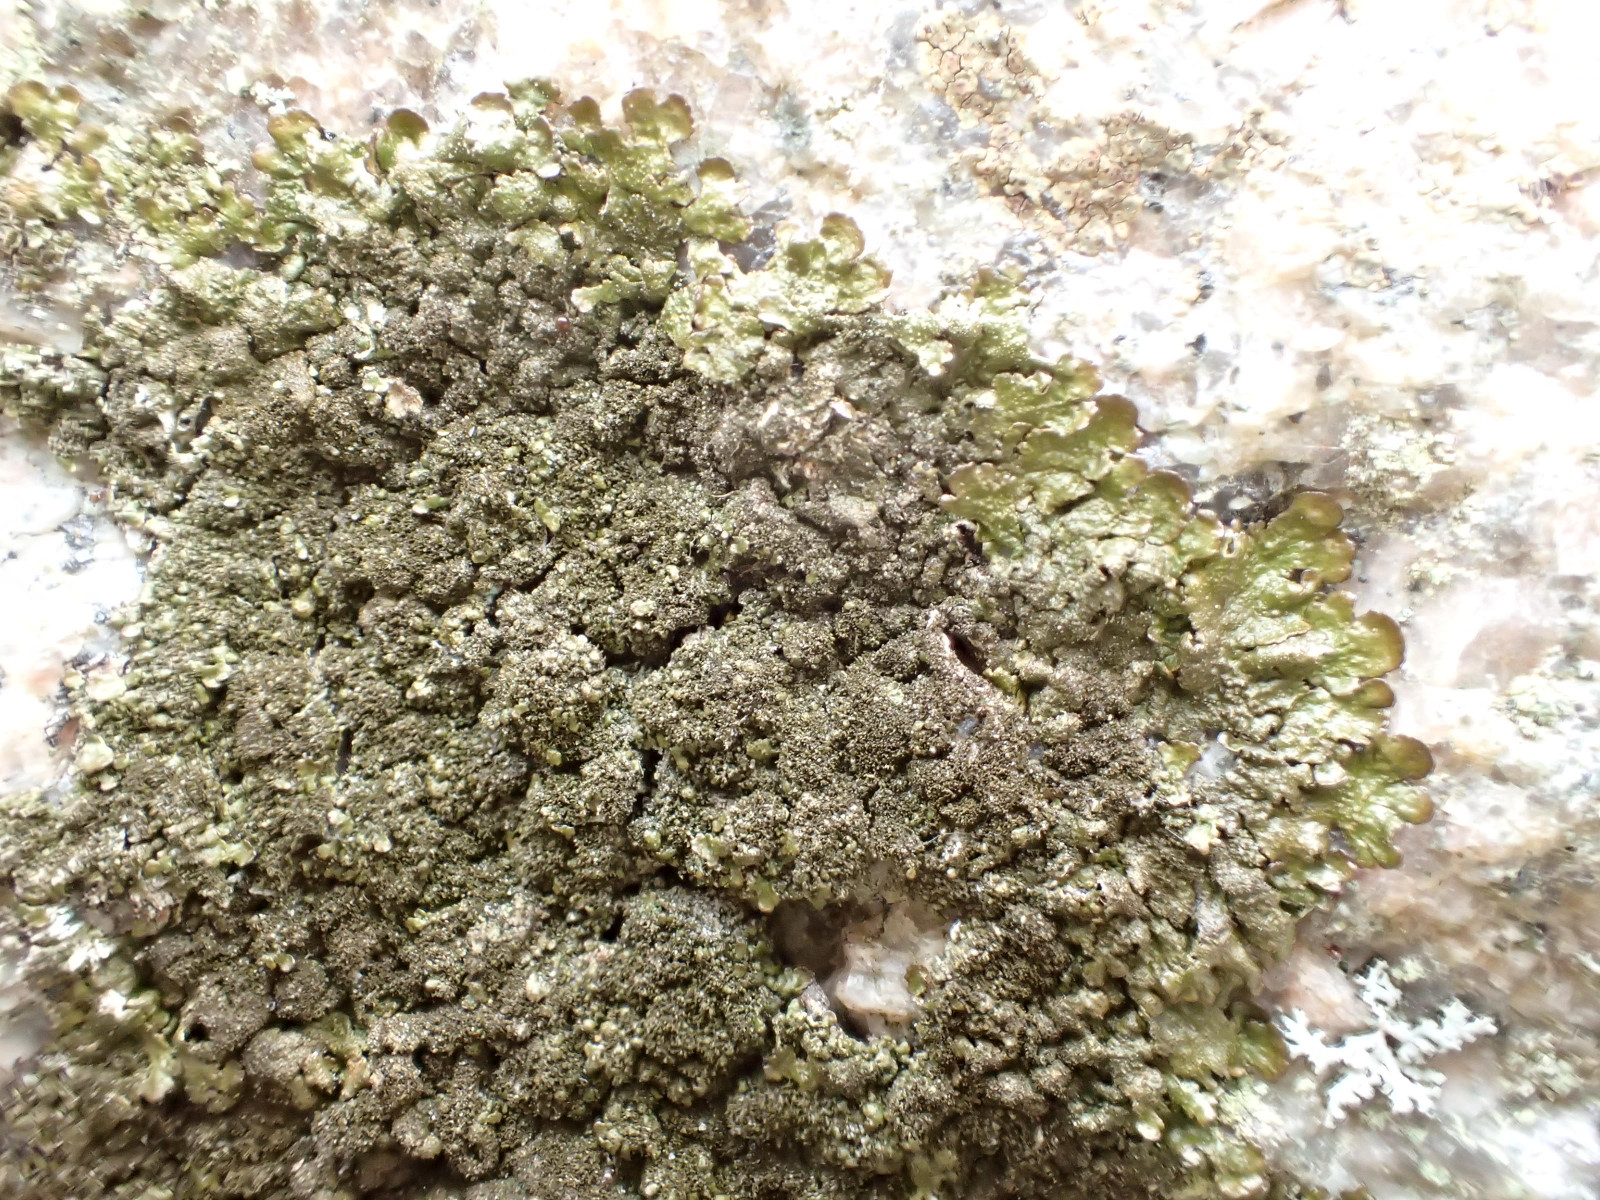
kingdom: Fungi
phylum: Ascomycota
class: Lecanoromycetes
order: Lecanorales
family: Parmeliaceae
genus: Melanelixia
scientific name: Melanelixia fuliginosa
